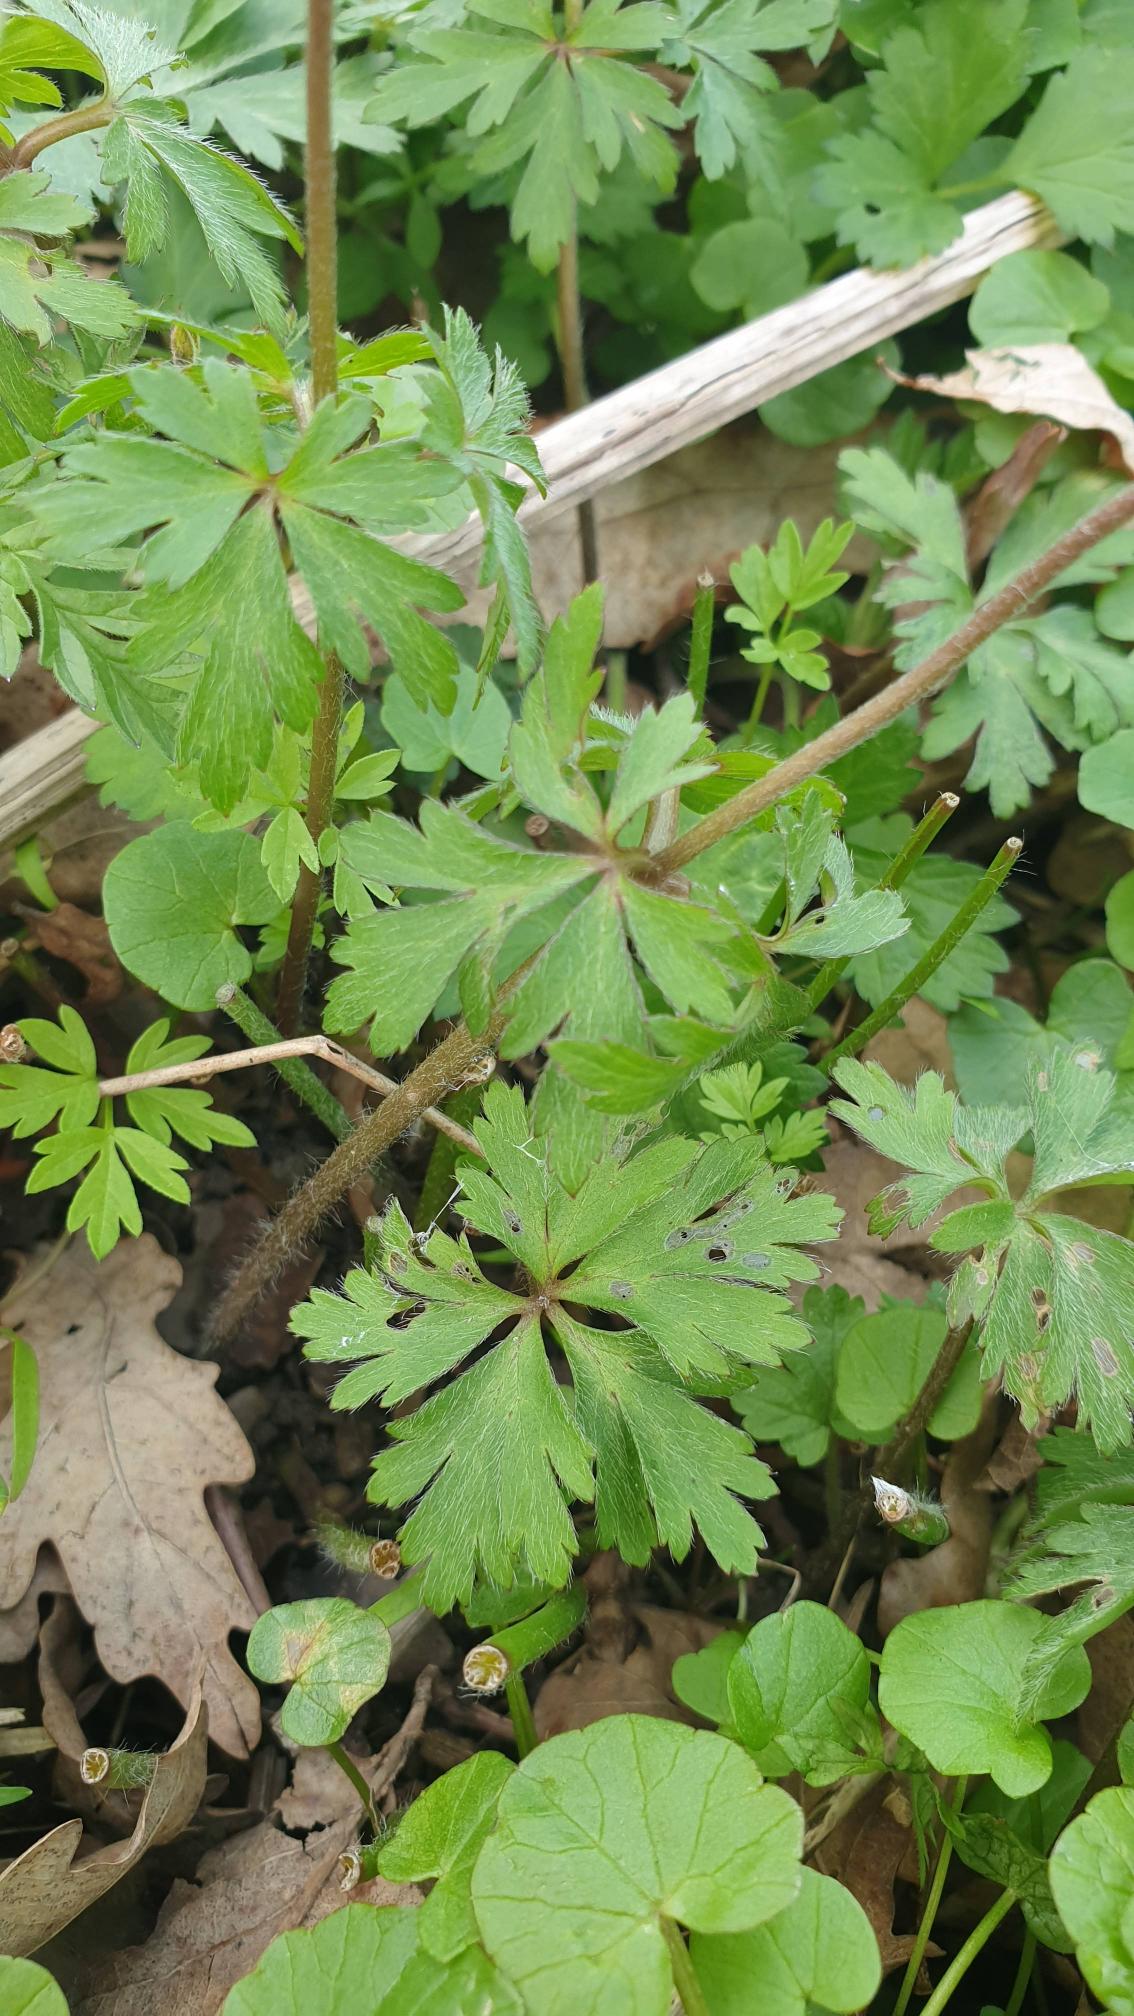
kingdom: Plantae
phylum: Tracheophyta
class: Magnoliopsida
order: Ranunculales
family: Ranunculaceae
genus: Anemone
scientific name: Anemone blanda
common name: Balkan-anemone
